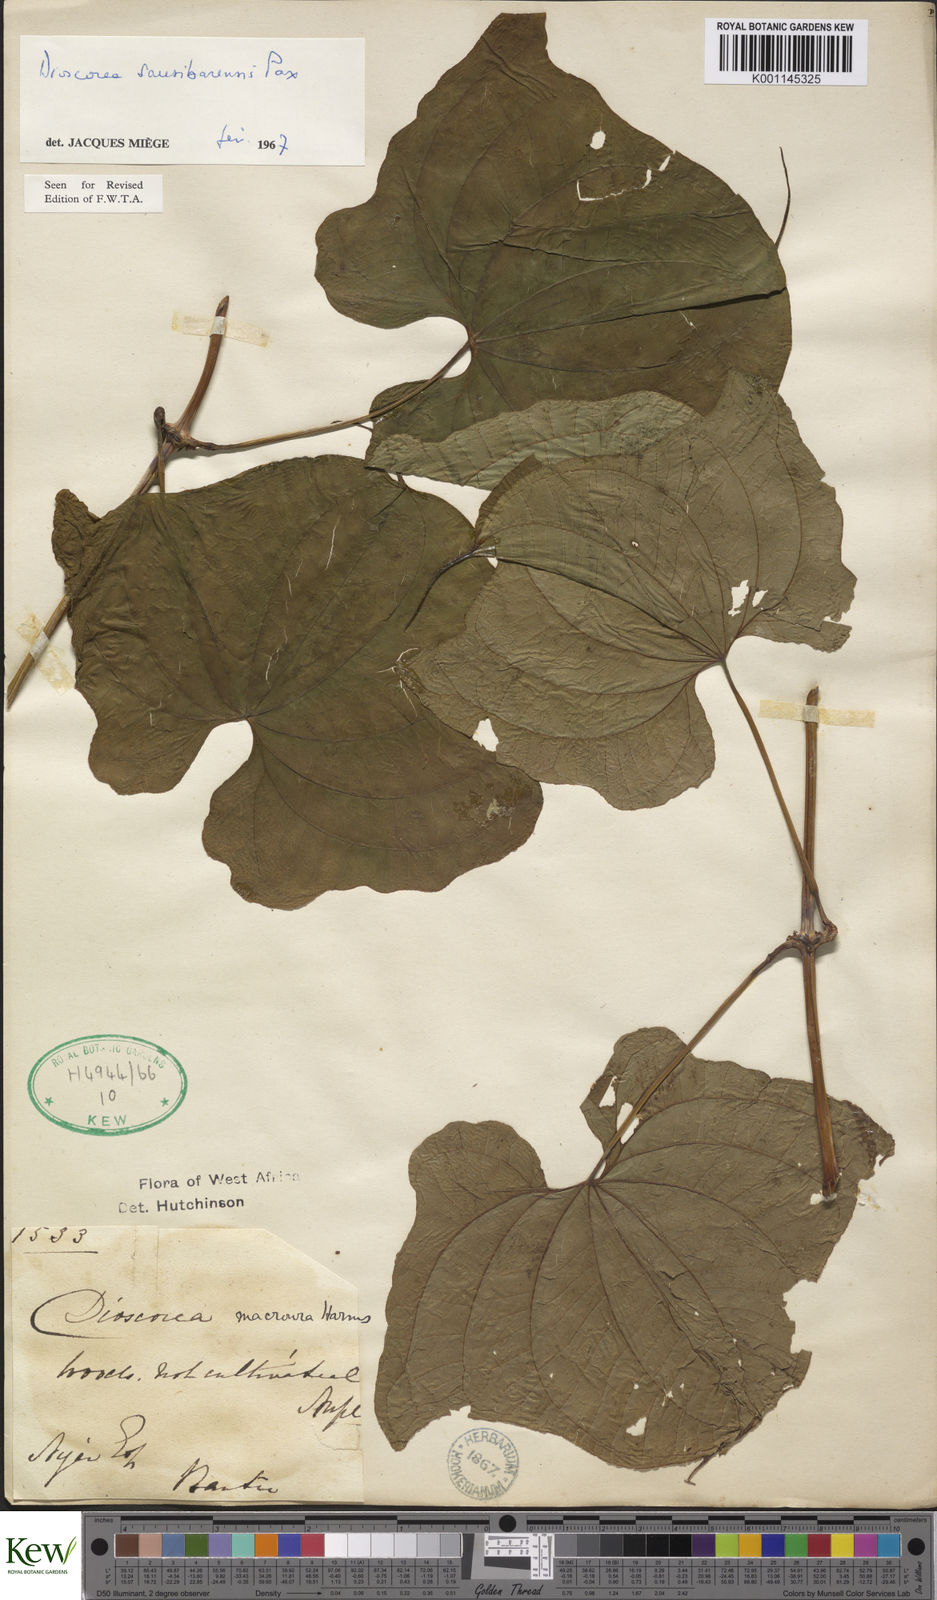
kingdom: Plantae
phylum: Tracheophyta
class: Liliopsida
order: Dioscoreales
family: Dioscoreaceae
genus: Dioscorea
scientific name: Dioscorea sansibarensis
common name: Zanzibar yam
